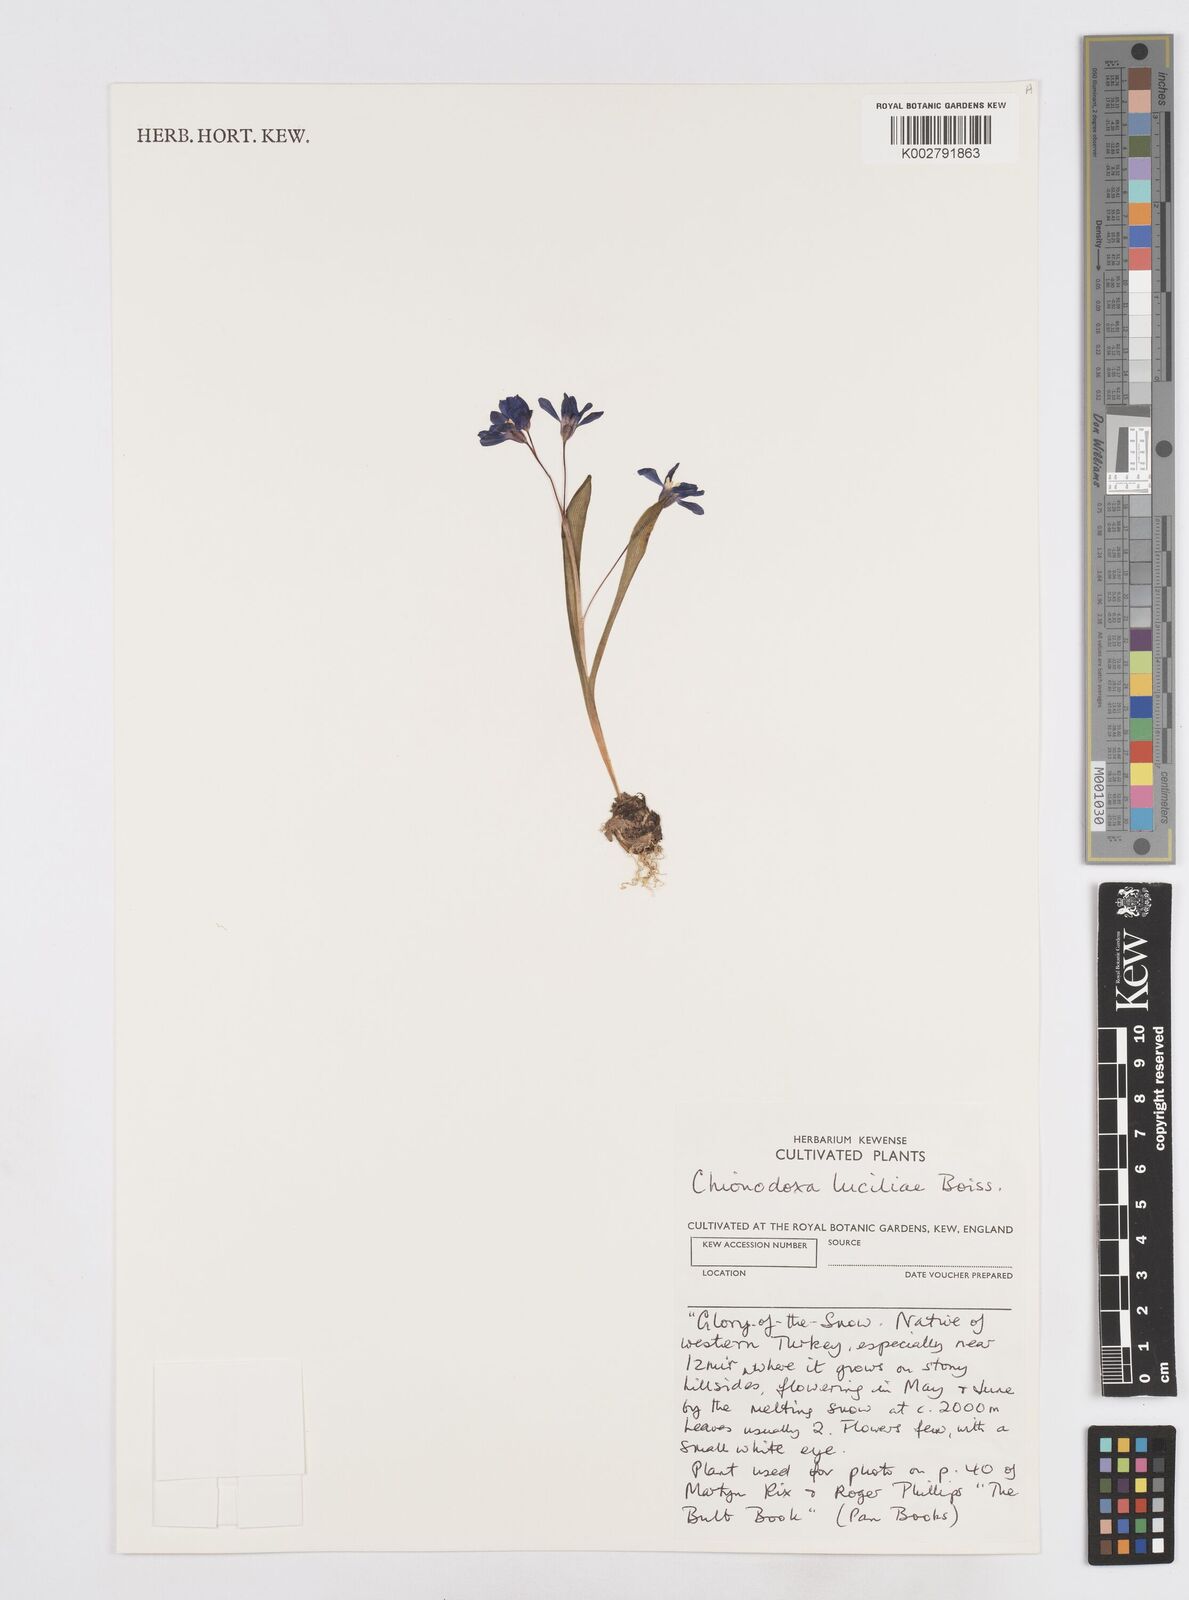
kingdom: Plantae
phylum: Tracheophyta
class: Liliopsida
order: Asparagales
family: Asparagaceae
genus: Scilla
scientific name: Scilla luciliae
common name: Boissier's glory-of-the-snow
